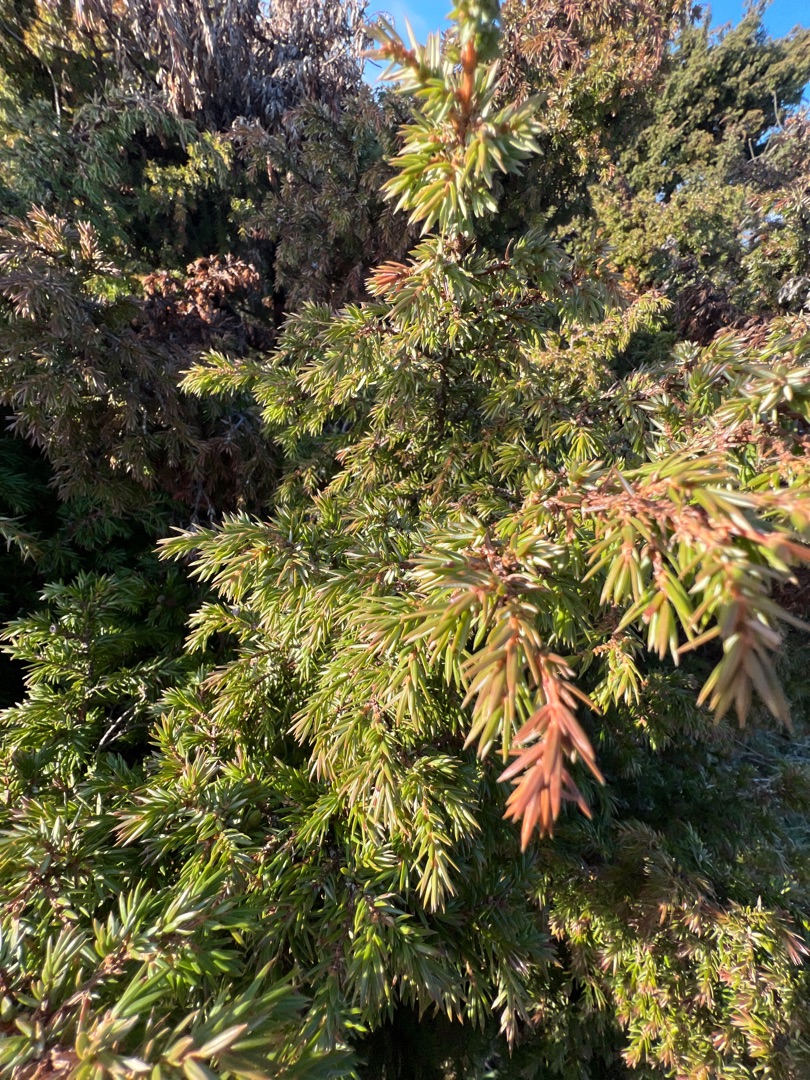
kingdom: Plantae
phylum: Tracheophyta
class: Pinopsida
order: Pinales
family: Cupressaceae
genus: Juniperus
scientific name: Juniperus communis
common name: Almindelig ene
